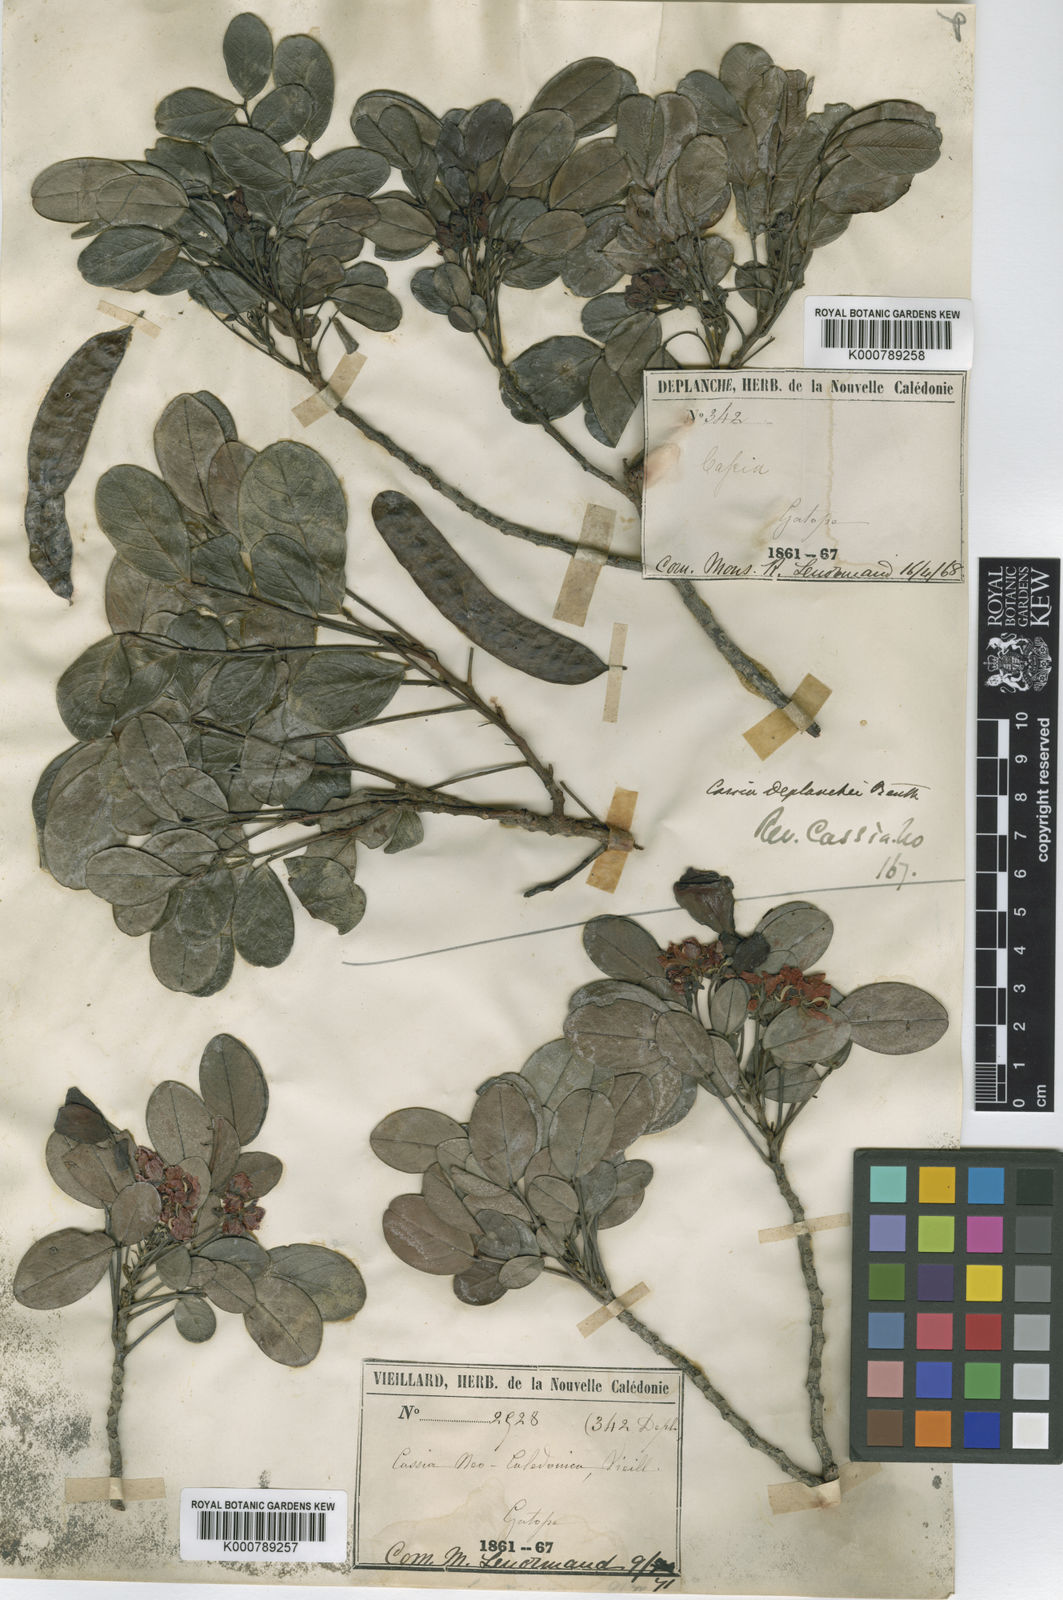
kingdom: Plantae
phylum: Tracheophyta
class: Magnoliopsida
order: Fabales
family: Fabaceae
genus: Senna
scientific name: Senna gaudichaudii
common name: Climbing cassia
